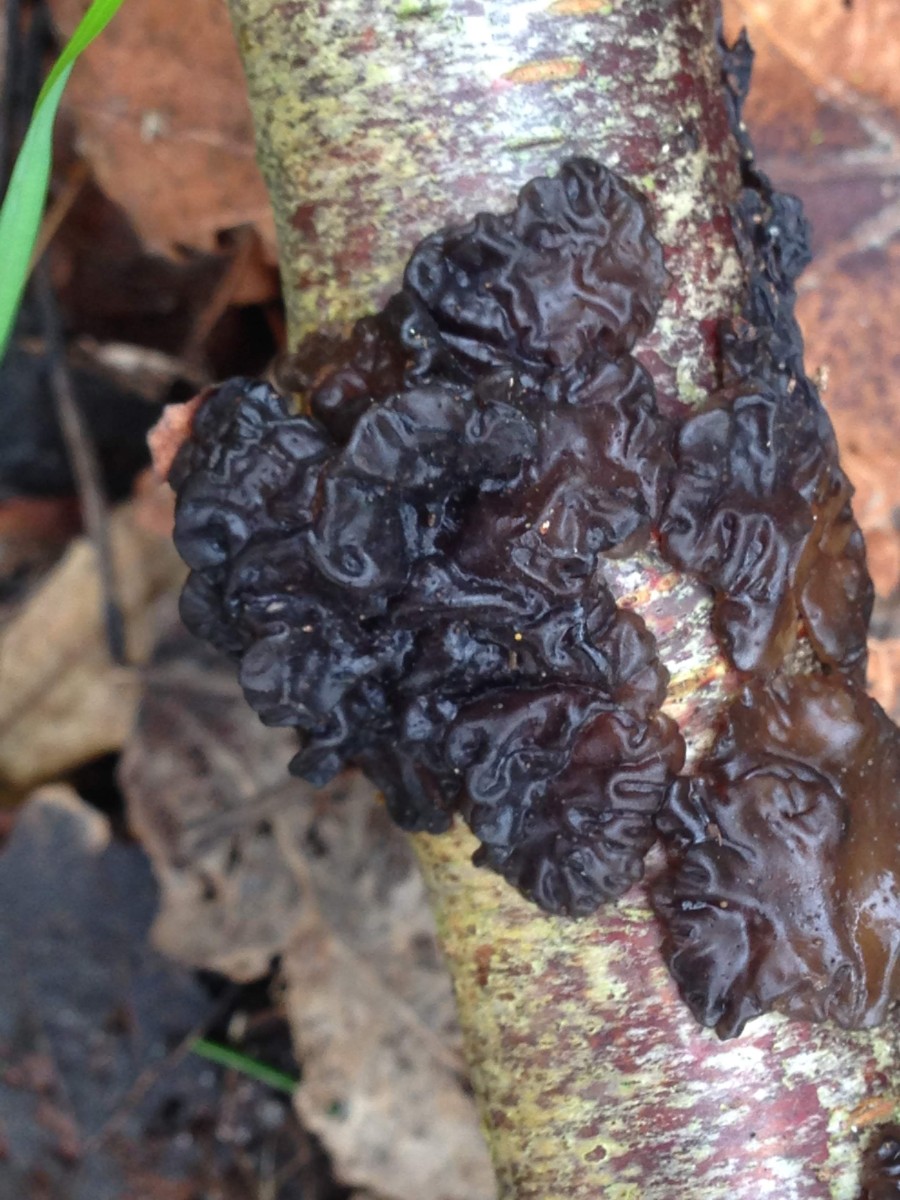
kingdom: Fungi
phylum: Basidiomycota
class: Agaricomycetes
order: Auriculariales
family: Auriculariaceae
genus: Exidia
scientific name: Exidia nigricans
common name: almindelig bævretop
